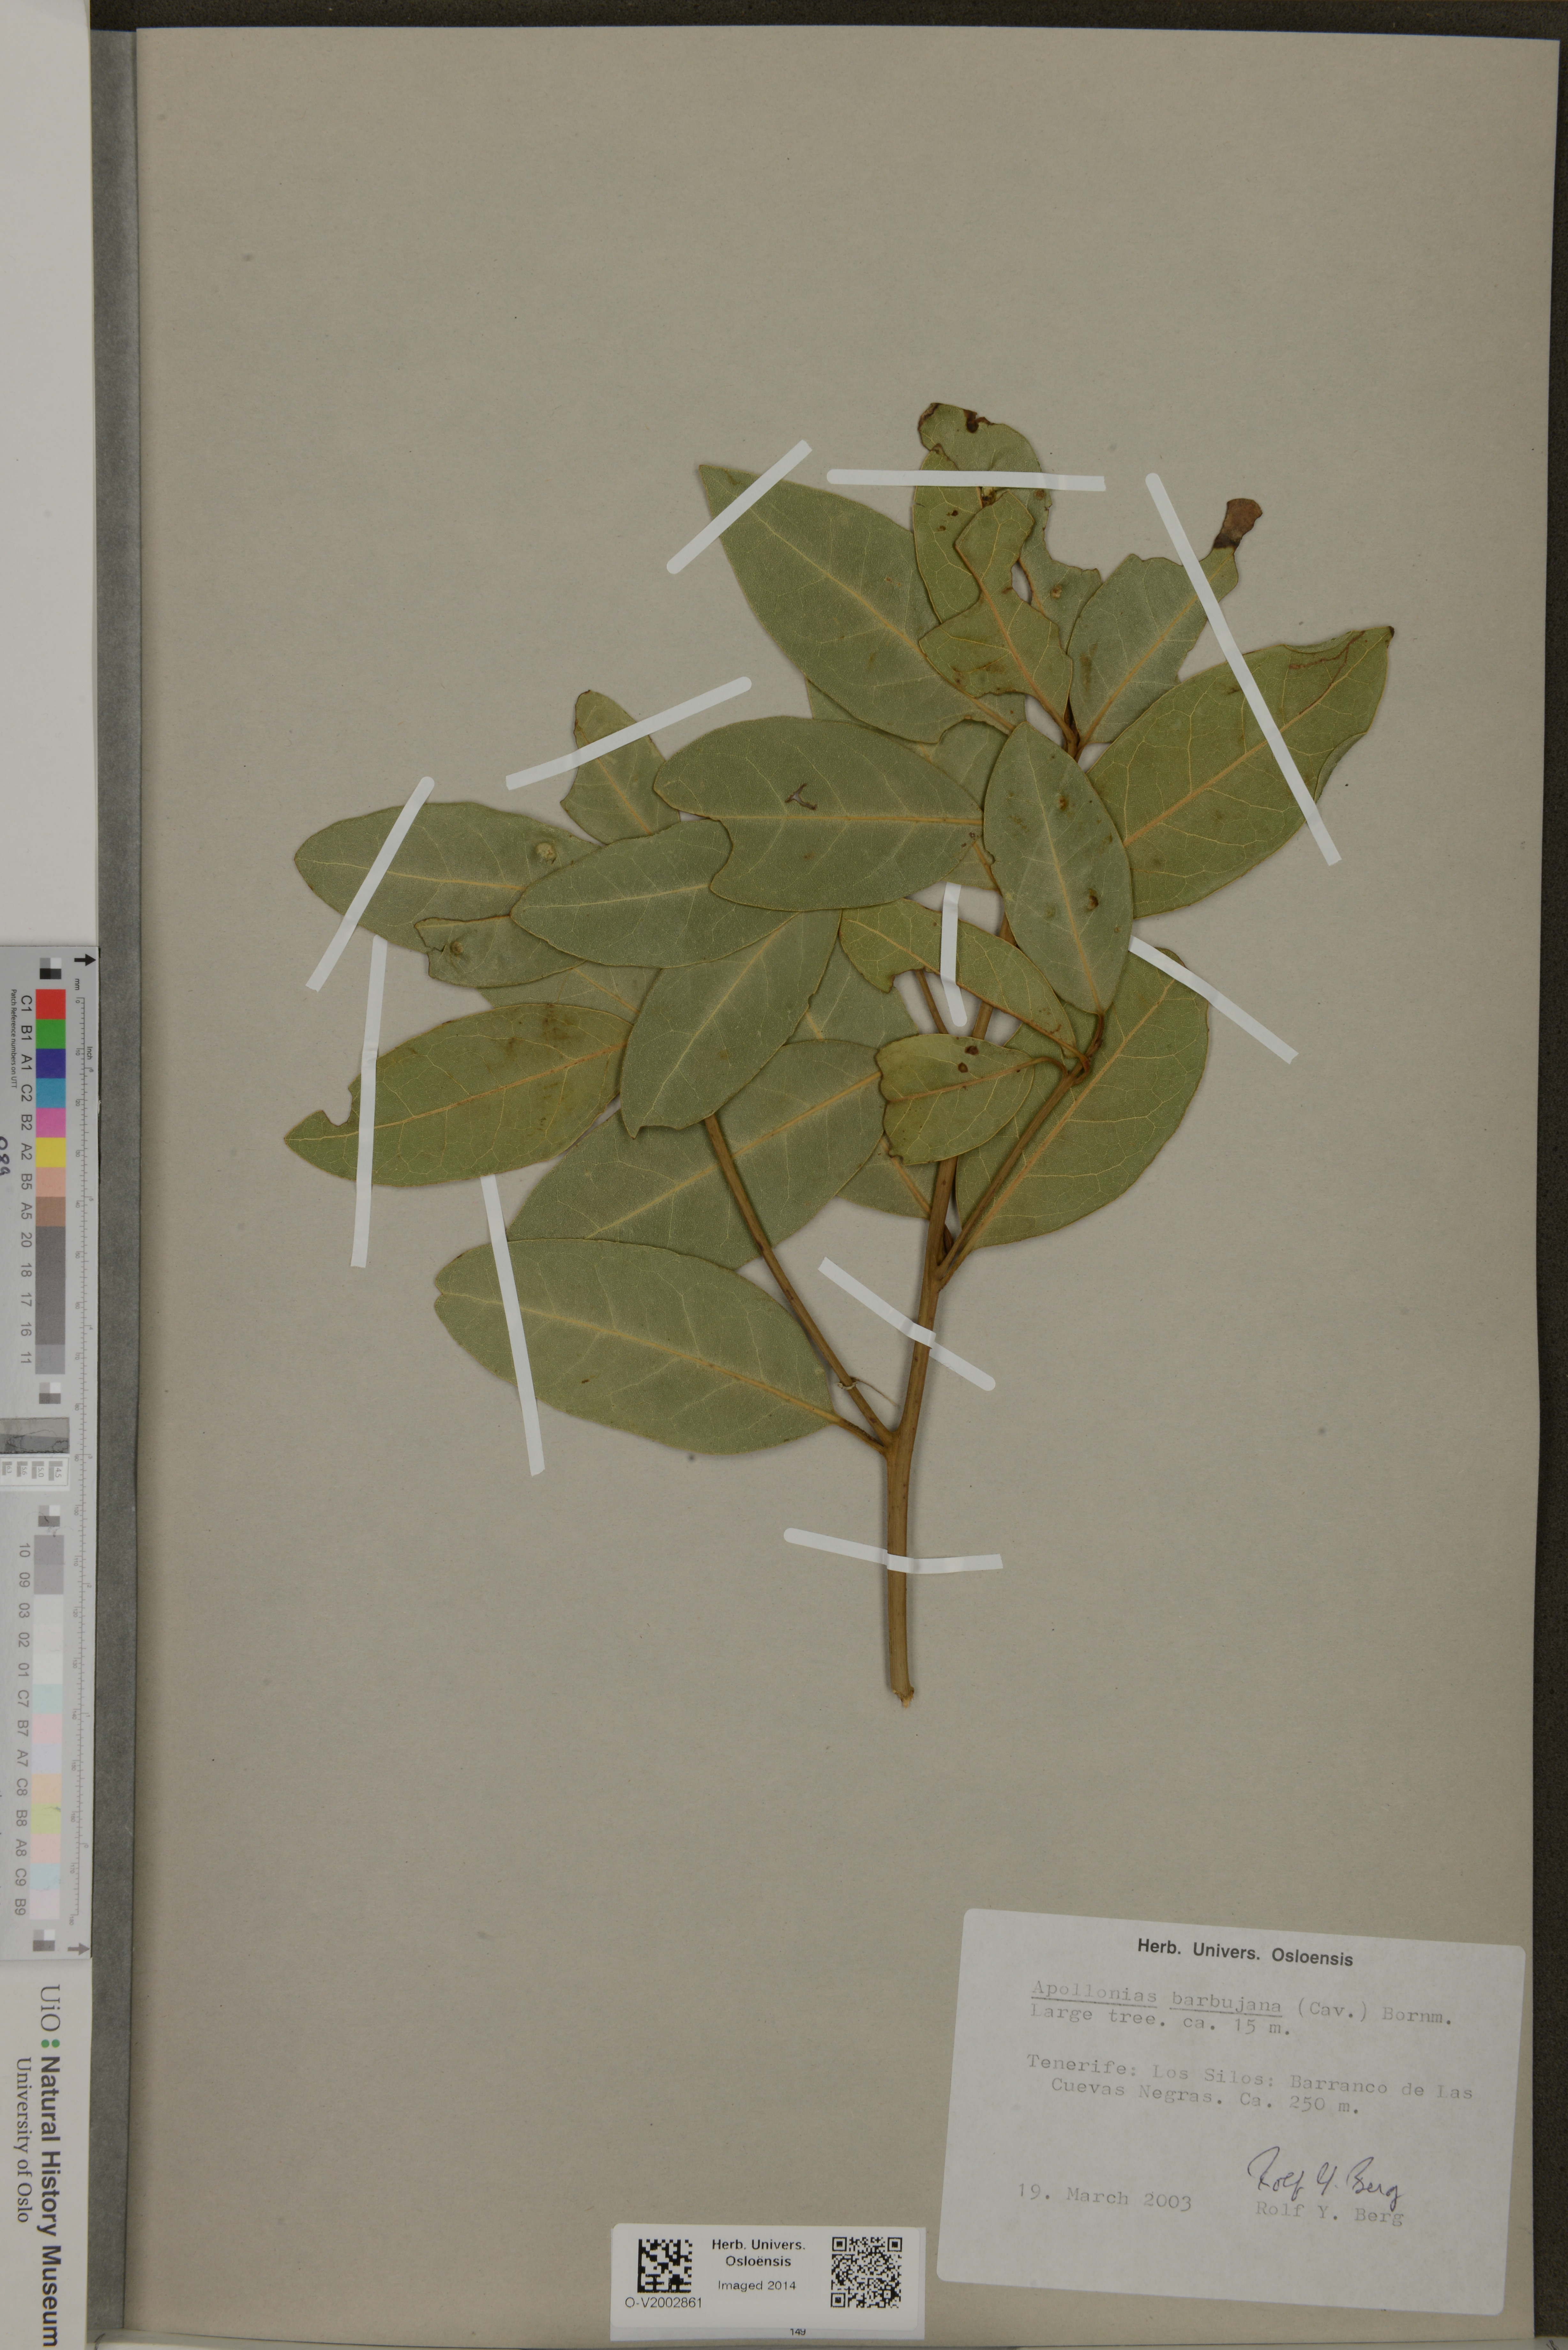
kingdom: Plantae
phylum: Tracheophyta
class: Magnoliopsida
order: Laurales
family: Lauraceae
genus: Apollonias
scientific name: Apollonias barbujana
